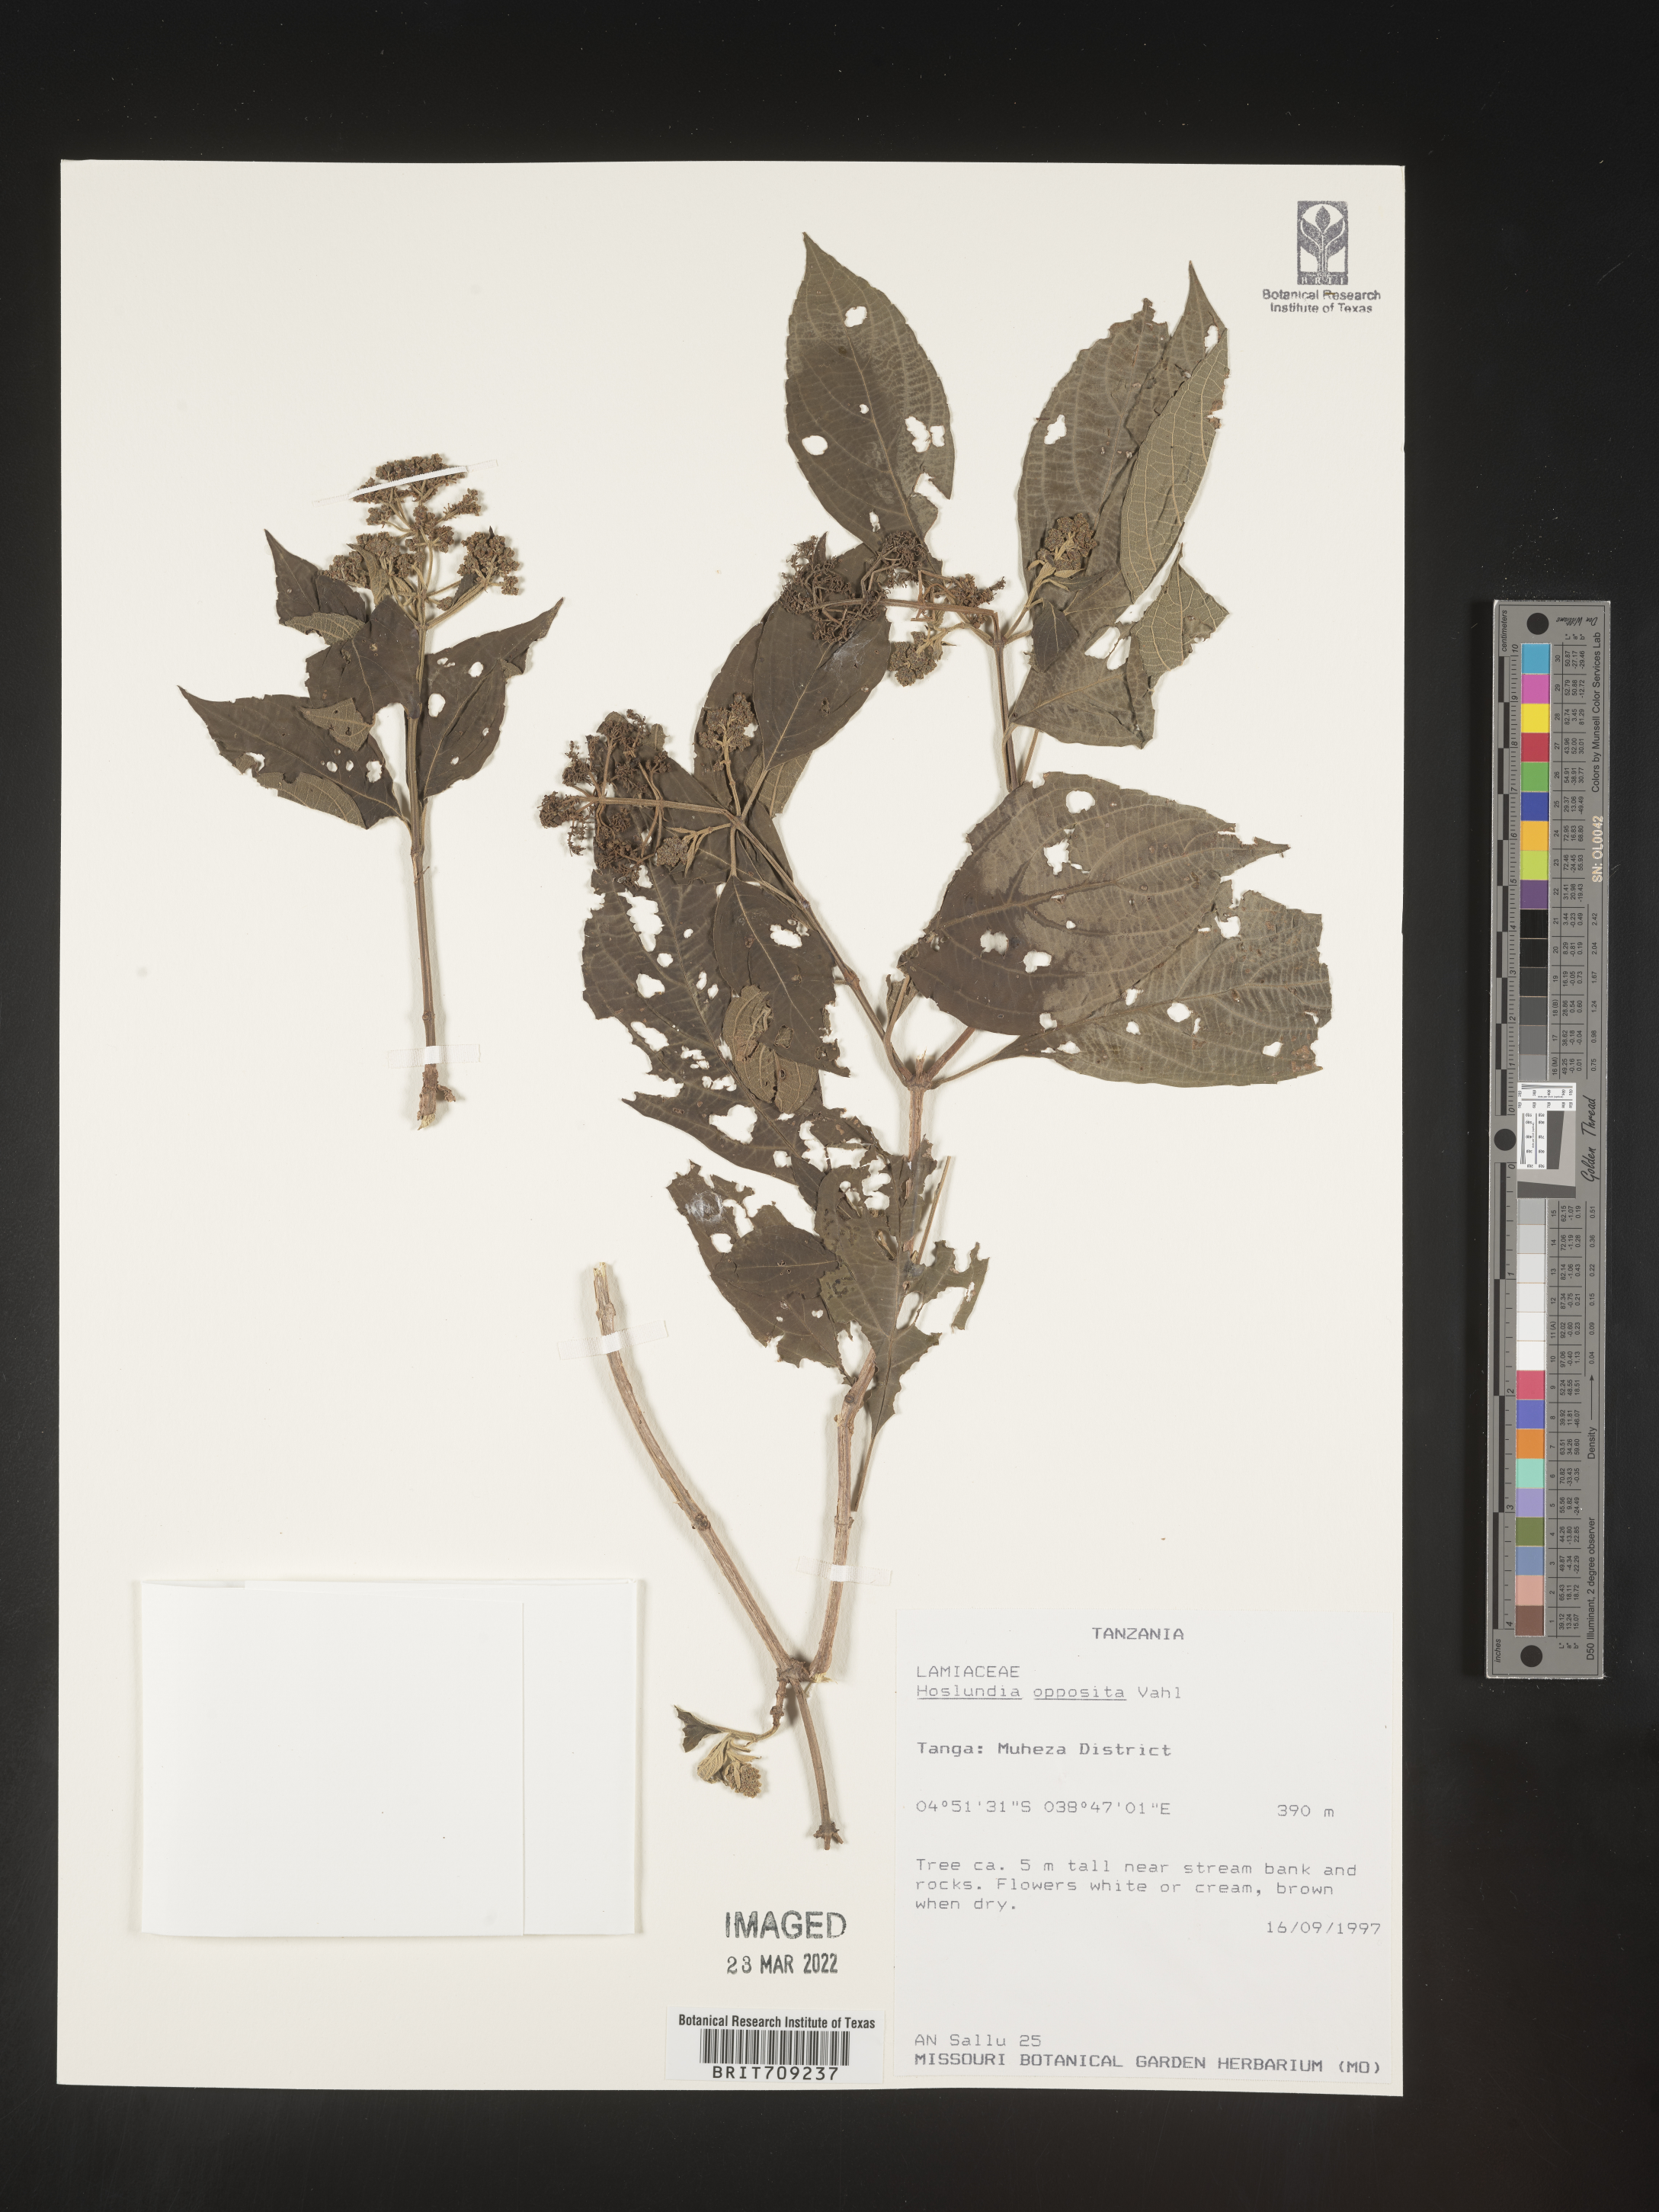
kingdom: Plantae
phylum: Tracheophyta
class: Magnoliopsida
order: Lamiales
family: Lamiaceae
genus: Hoslundia
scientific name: Hoslundia opposita
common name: Kamyuye
